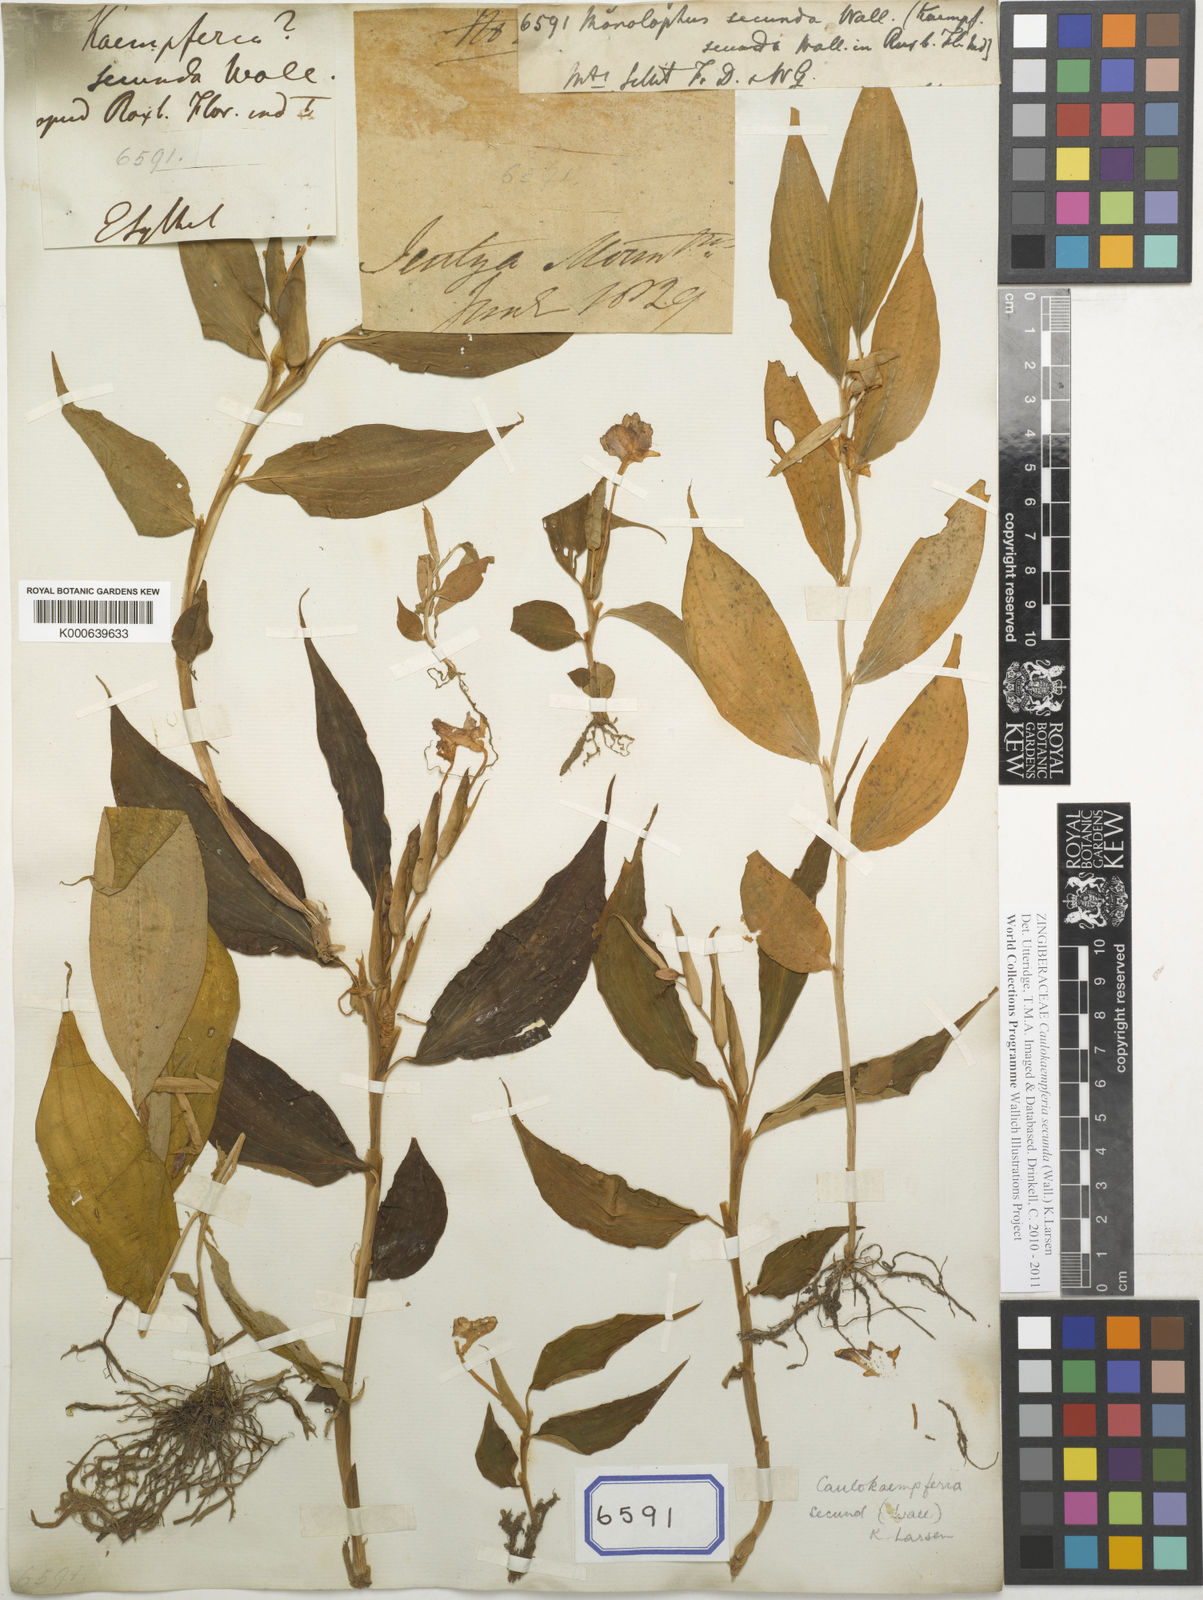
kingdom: Plantae
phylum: Tracheophyta
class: Liliopsida
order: Zingiberales
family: Zingiberaceae
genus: Caulokaempferia
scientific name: Caulokaempferia secunda
